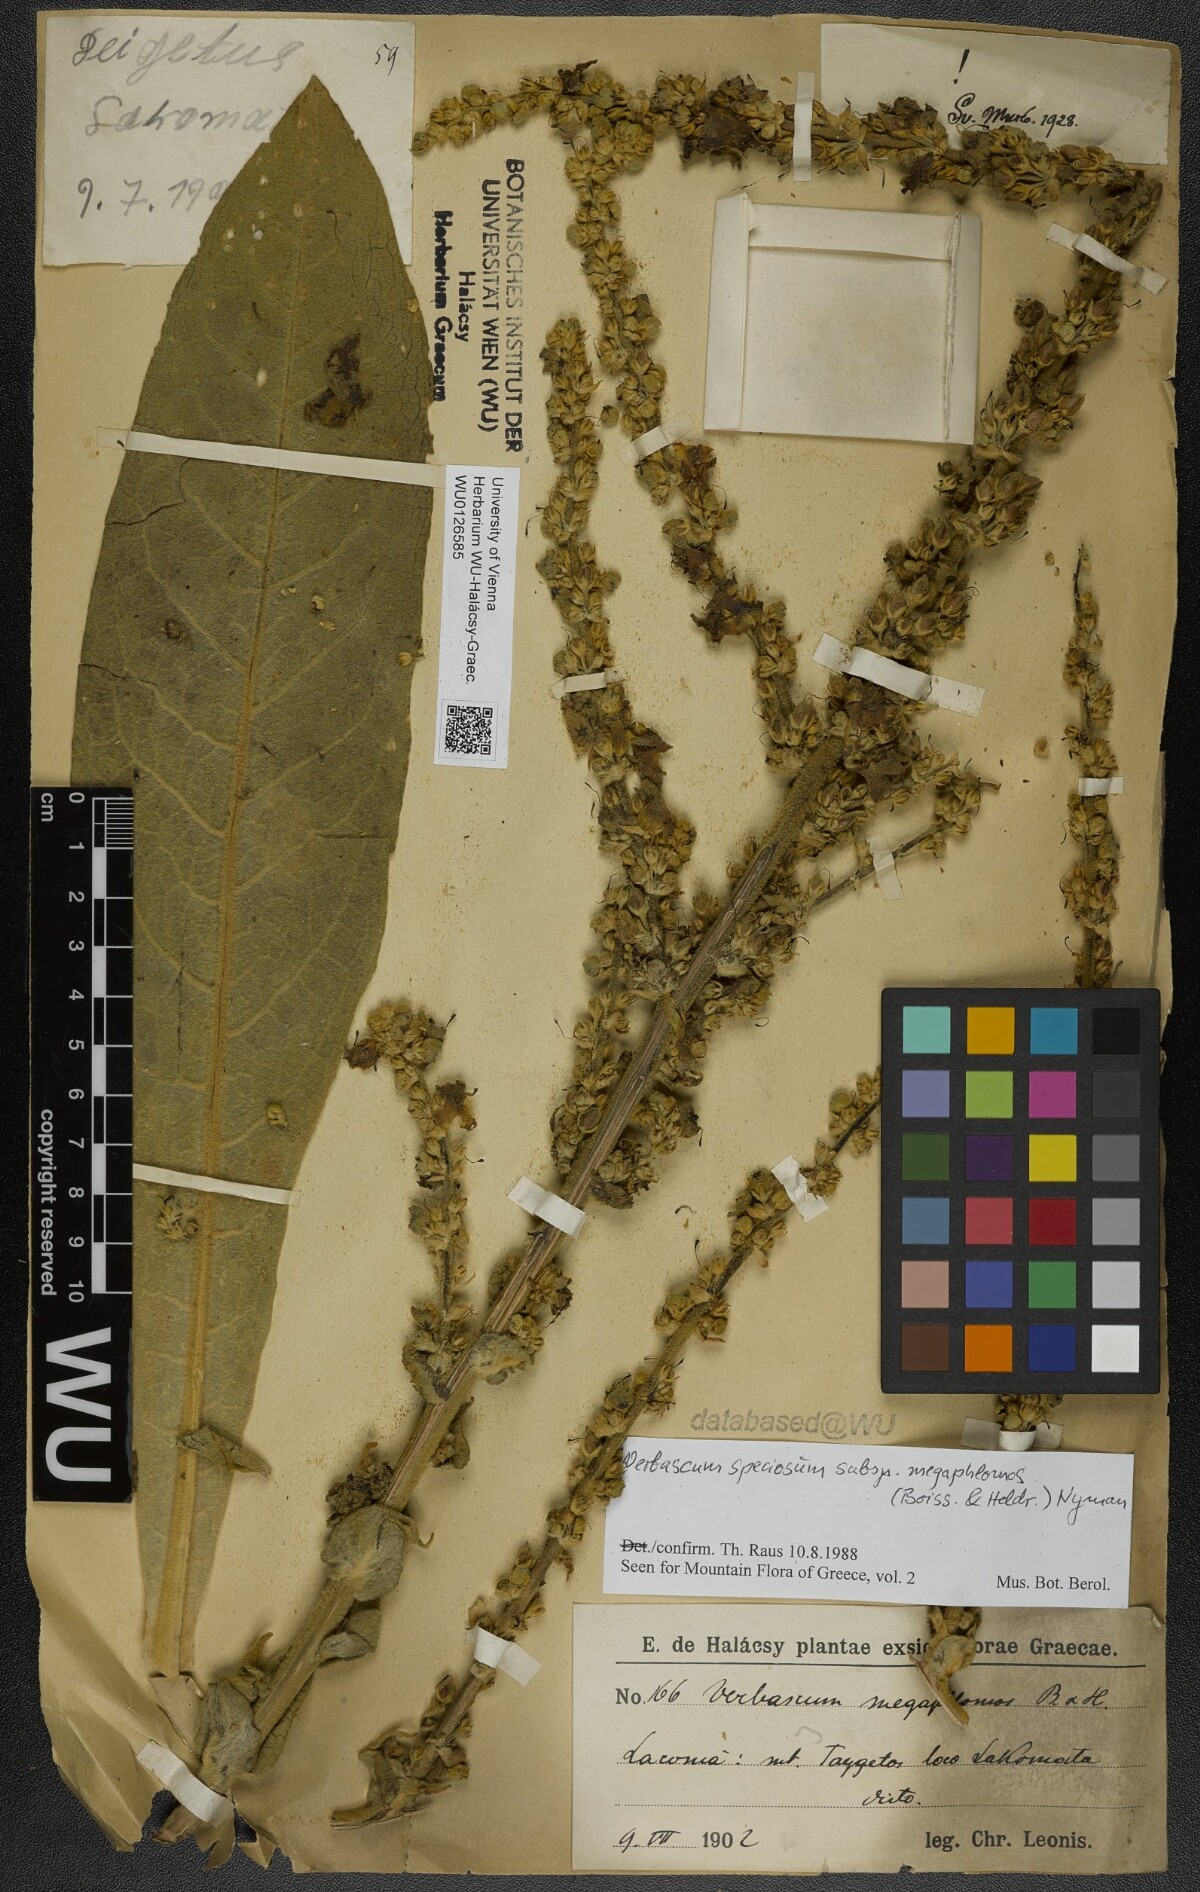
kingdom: Plantae
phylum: Tracheophyta
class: Magnoliopsida
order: Lamiales
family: Scrophulariaceae
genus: Verbascum
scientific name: Verbascum speciosum
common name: Hungarian mullein
